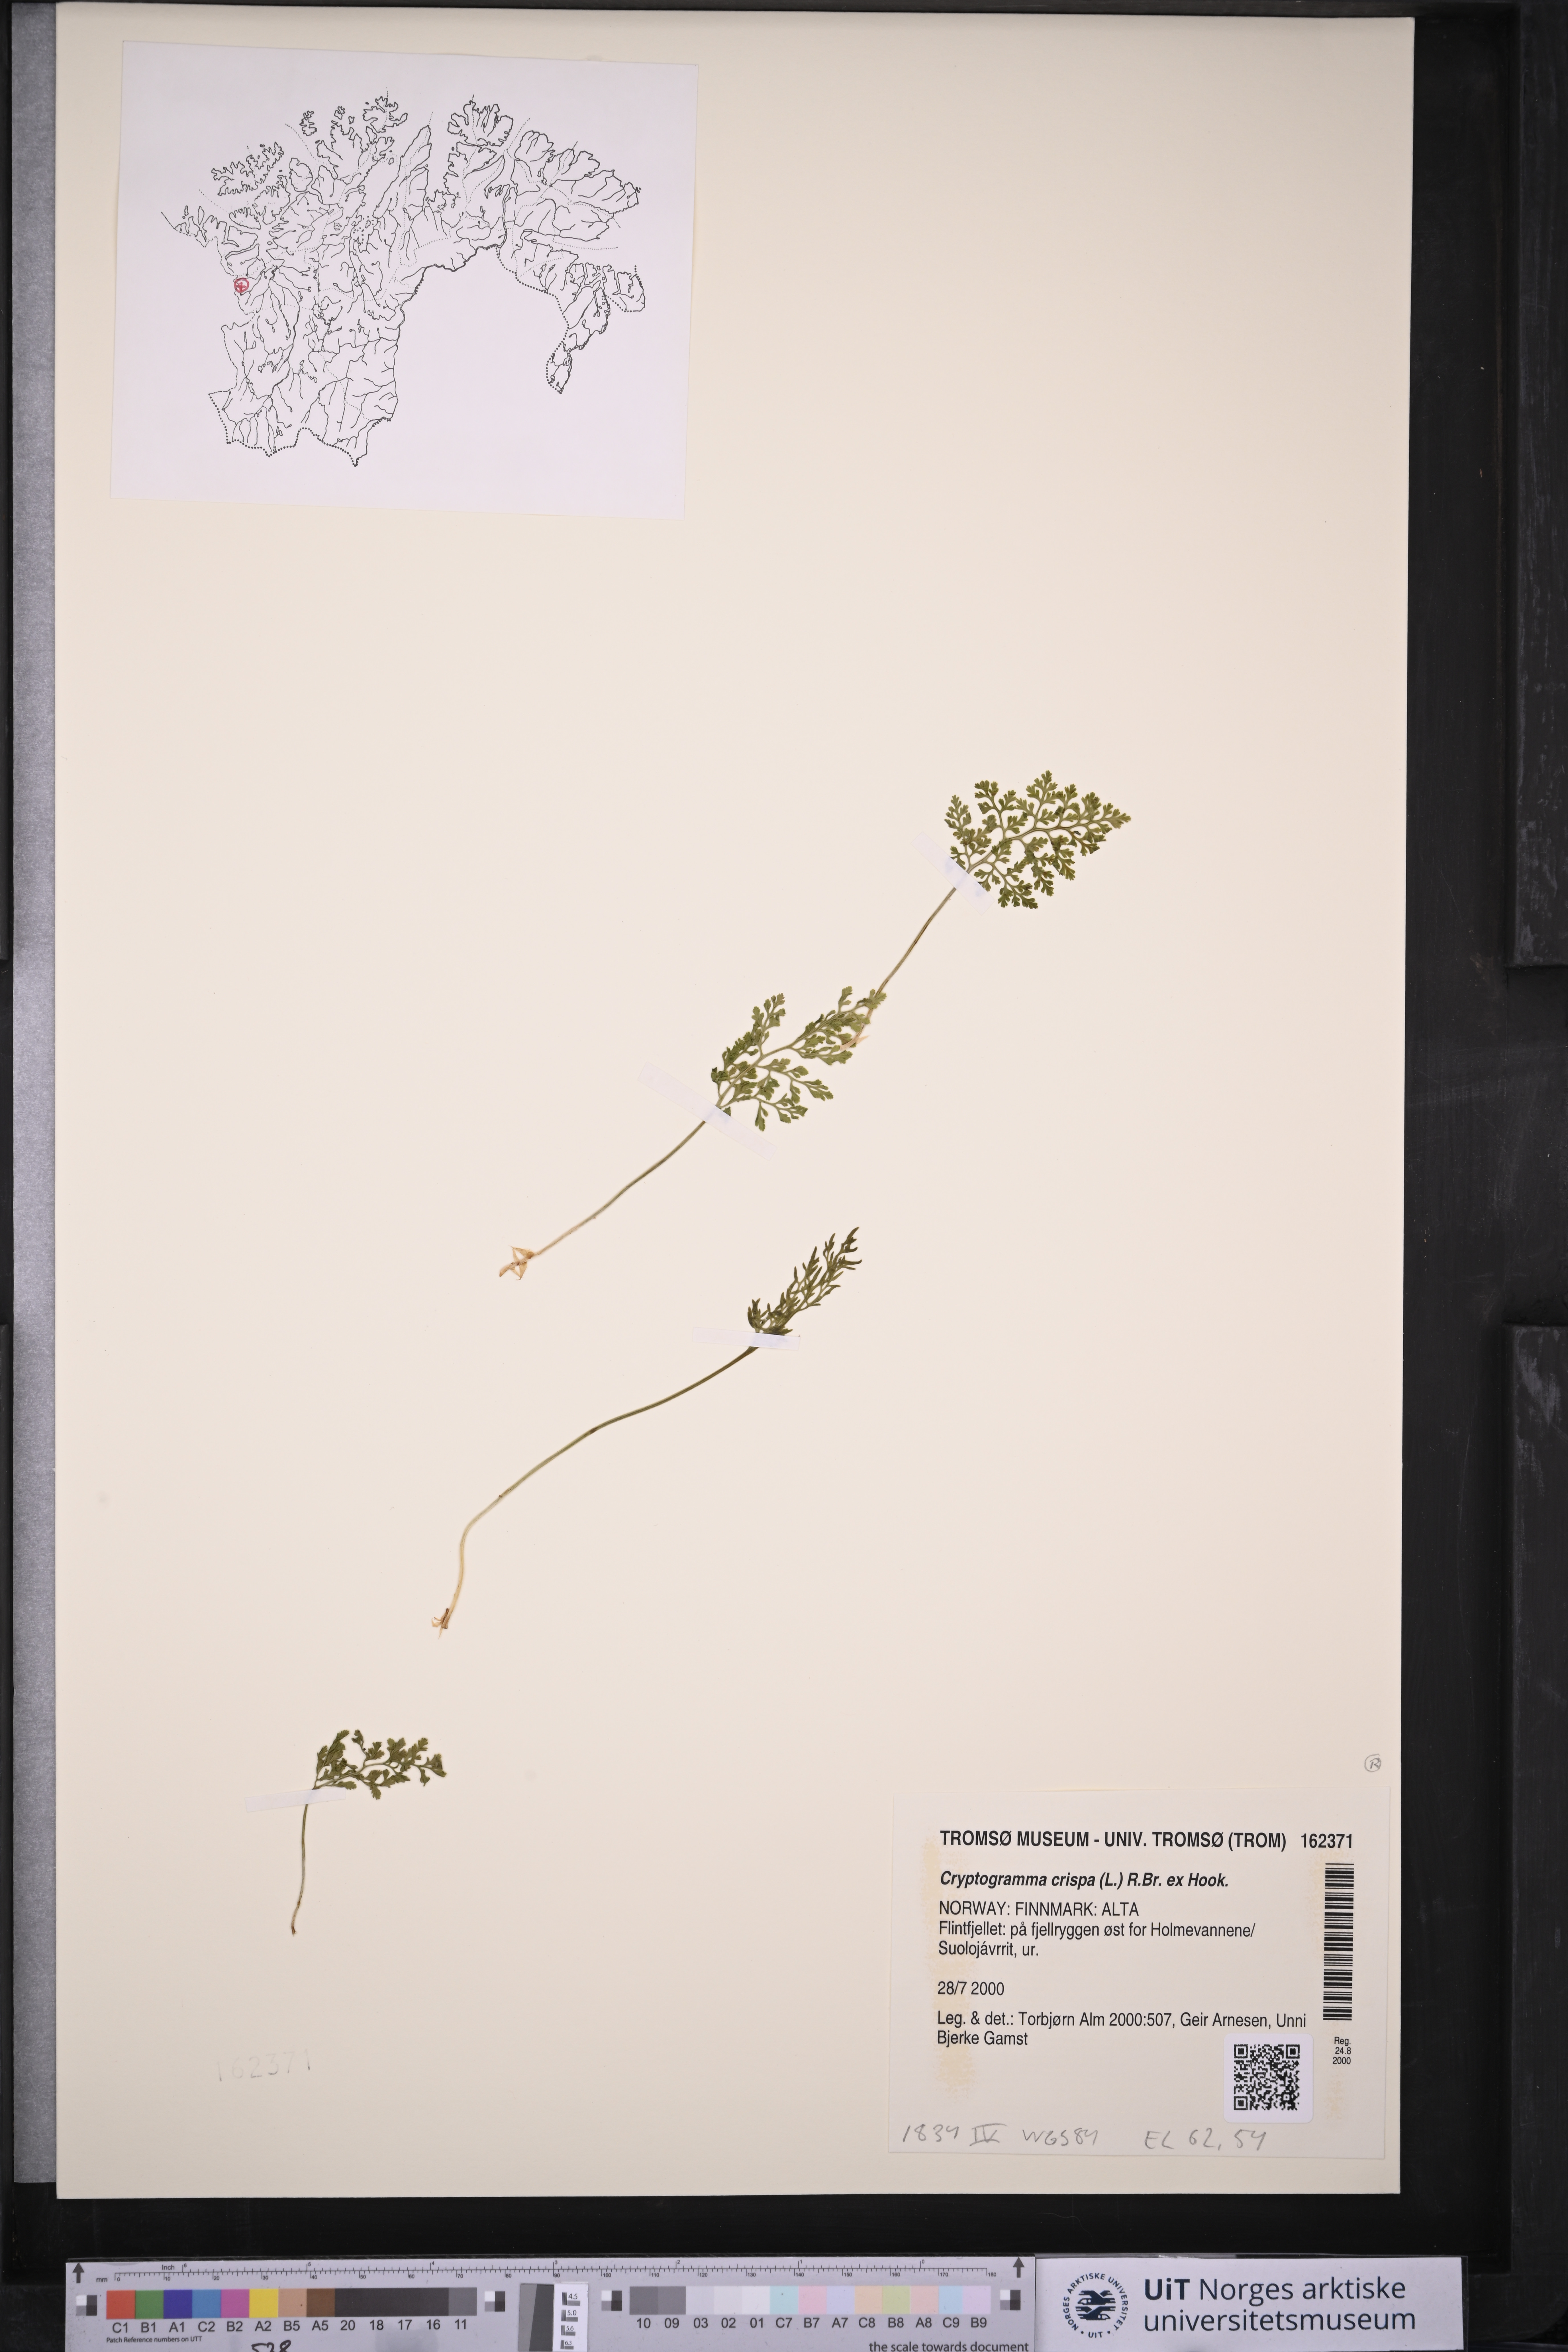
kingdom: Plantae
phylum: Tracheophyta
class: Polypodiopsida
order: Polypodiales
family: Pteridaceae
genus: Cryptogramma
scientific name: Cryptogramma crispa
